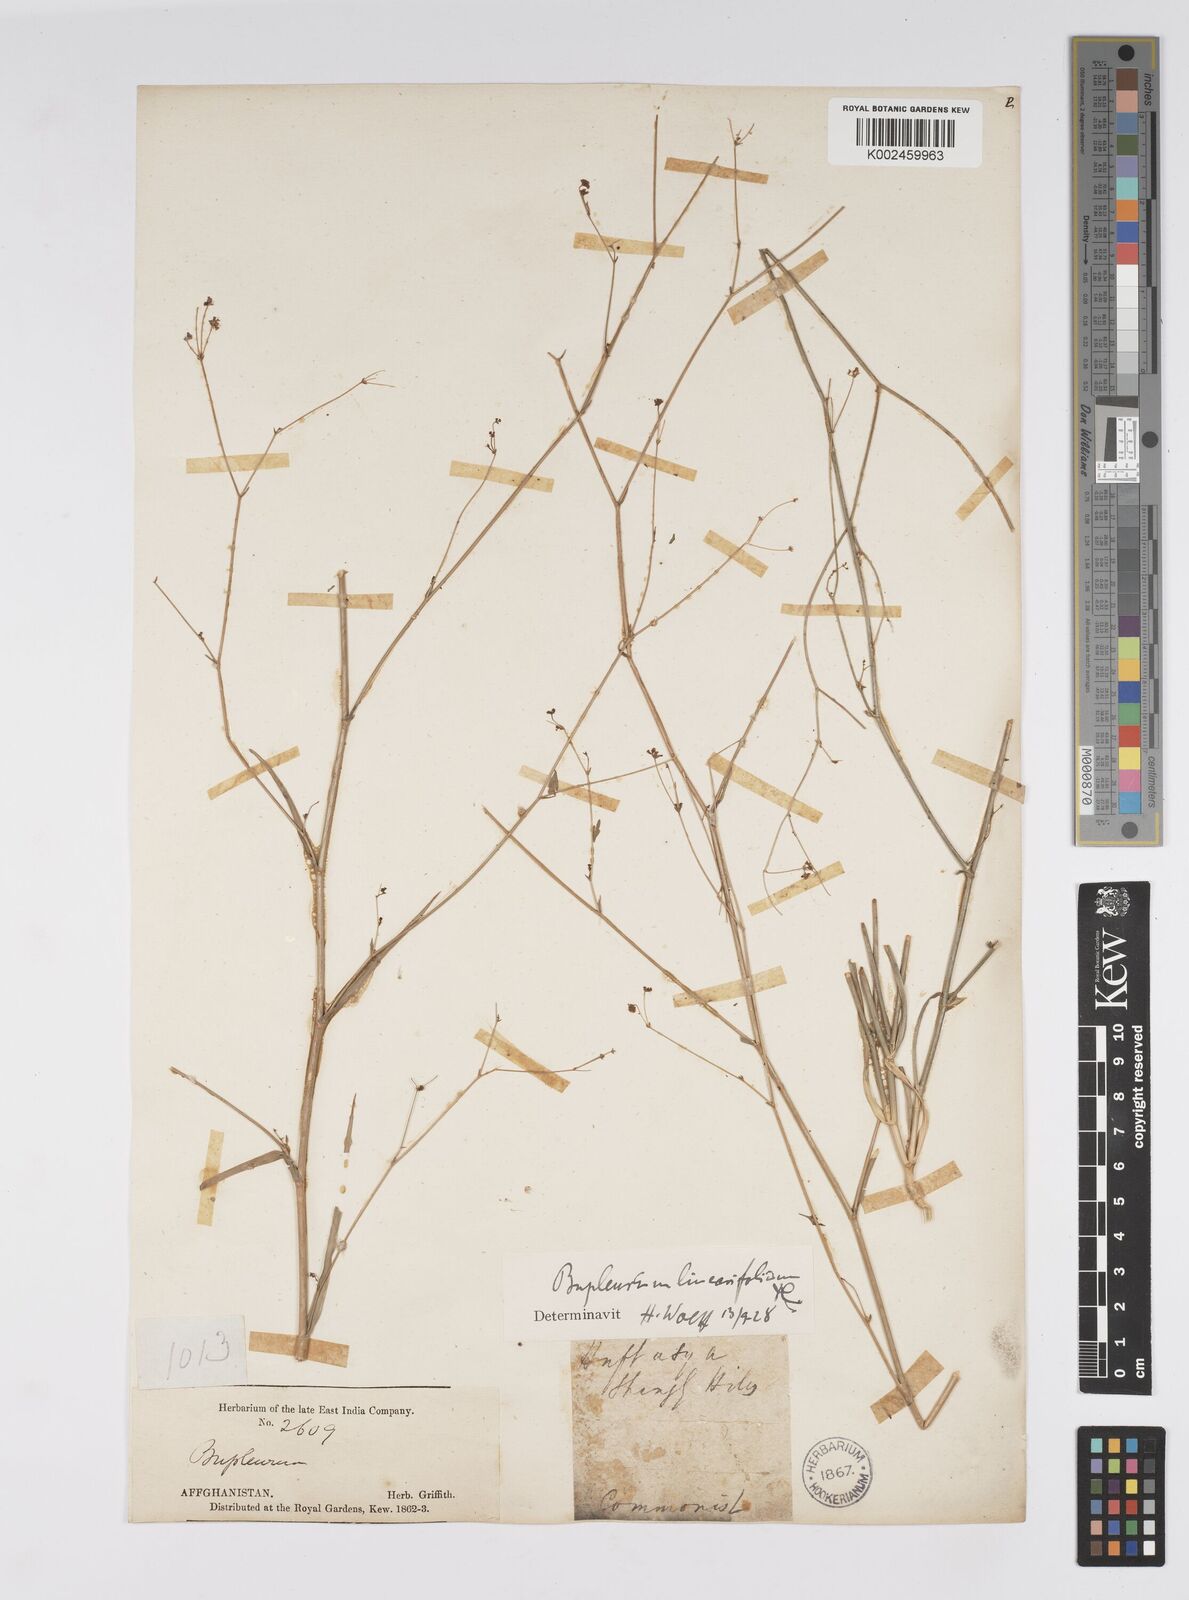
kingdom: Plantae
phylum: Tracheophyta
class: Magnoliopsida
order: Apiales
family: Apiaceae
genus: Bupleurum
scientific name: Bupleurum falcatum
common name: Sickle-leaved hare's-ear
